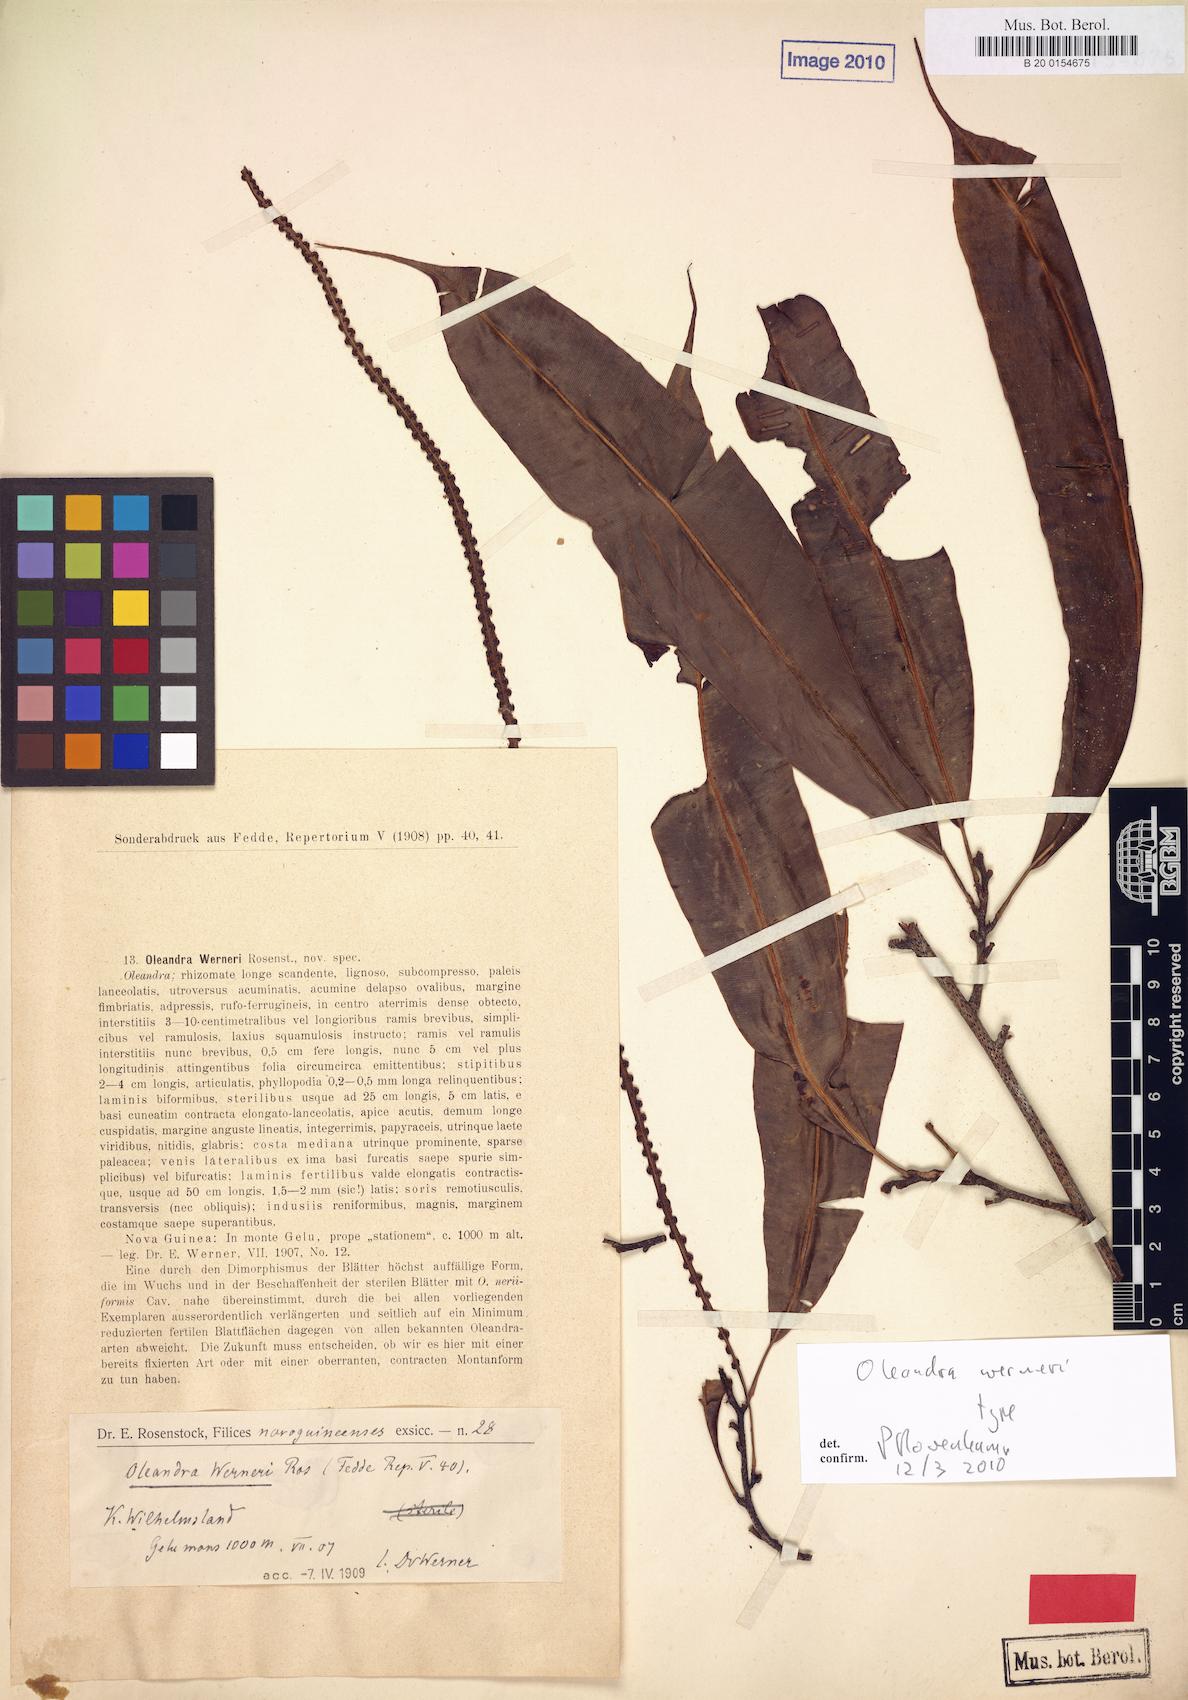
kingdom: Plantae
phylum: Tracheophyta
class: Polypodiopsida
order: Polypodiales
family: Oleandraceae
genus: Oleandra
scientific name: Oleandra werneri
